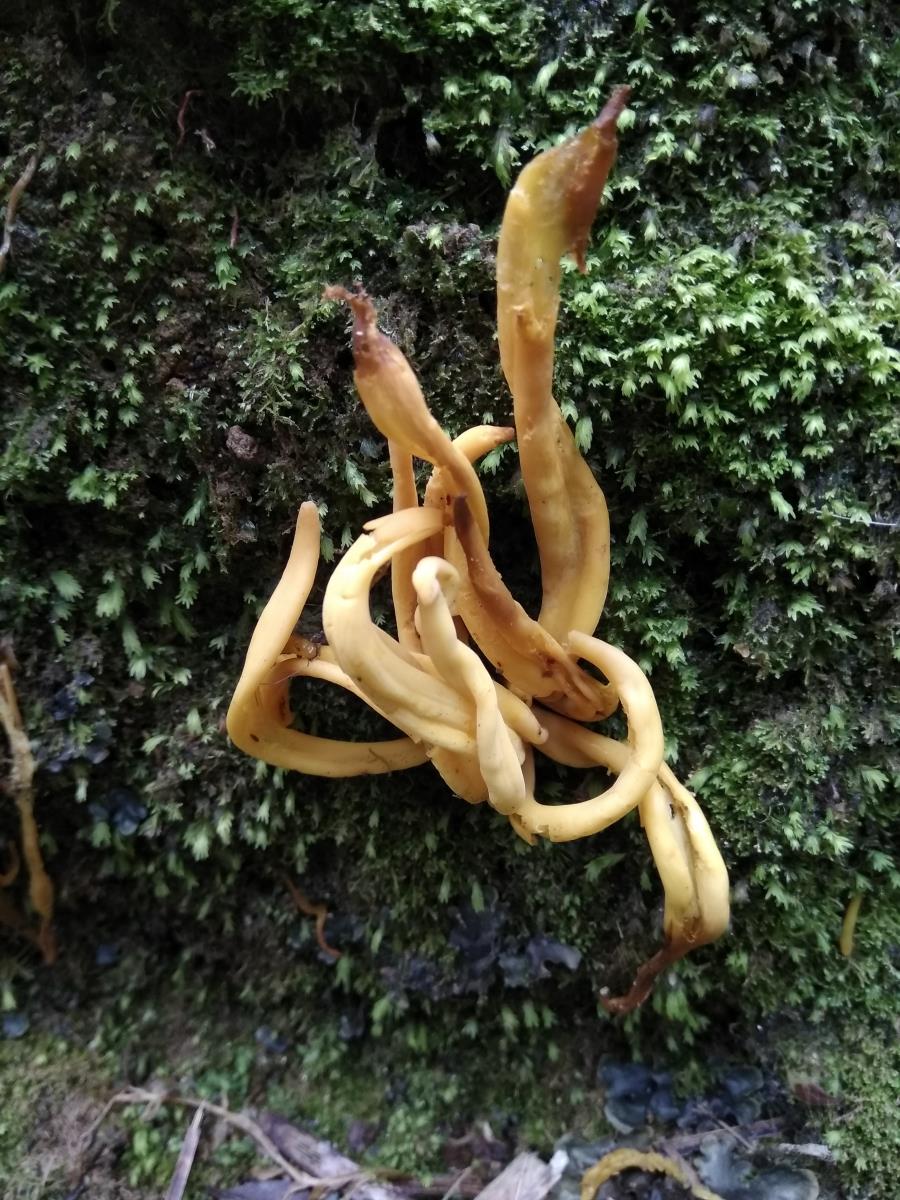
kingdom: Fungi
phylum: Basidiomycota
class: Agaricomycetes
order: Agaricales
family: Clavariaceae
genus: Clavulinopsis
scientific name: Clavulinopsis antillarum
